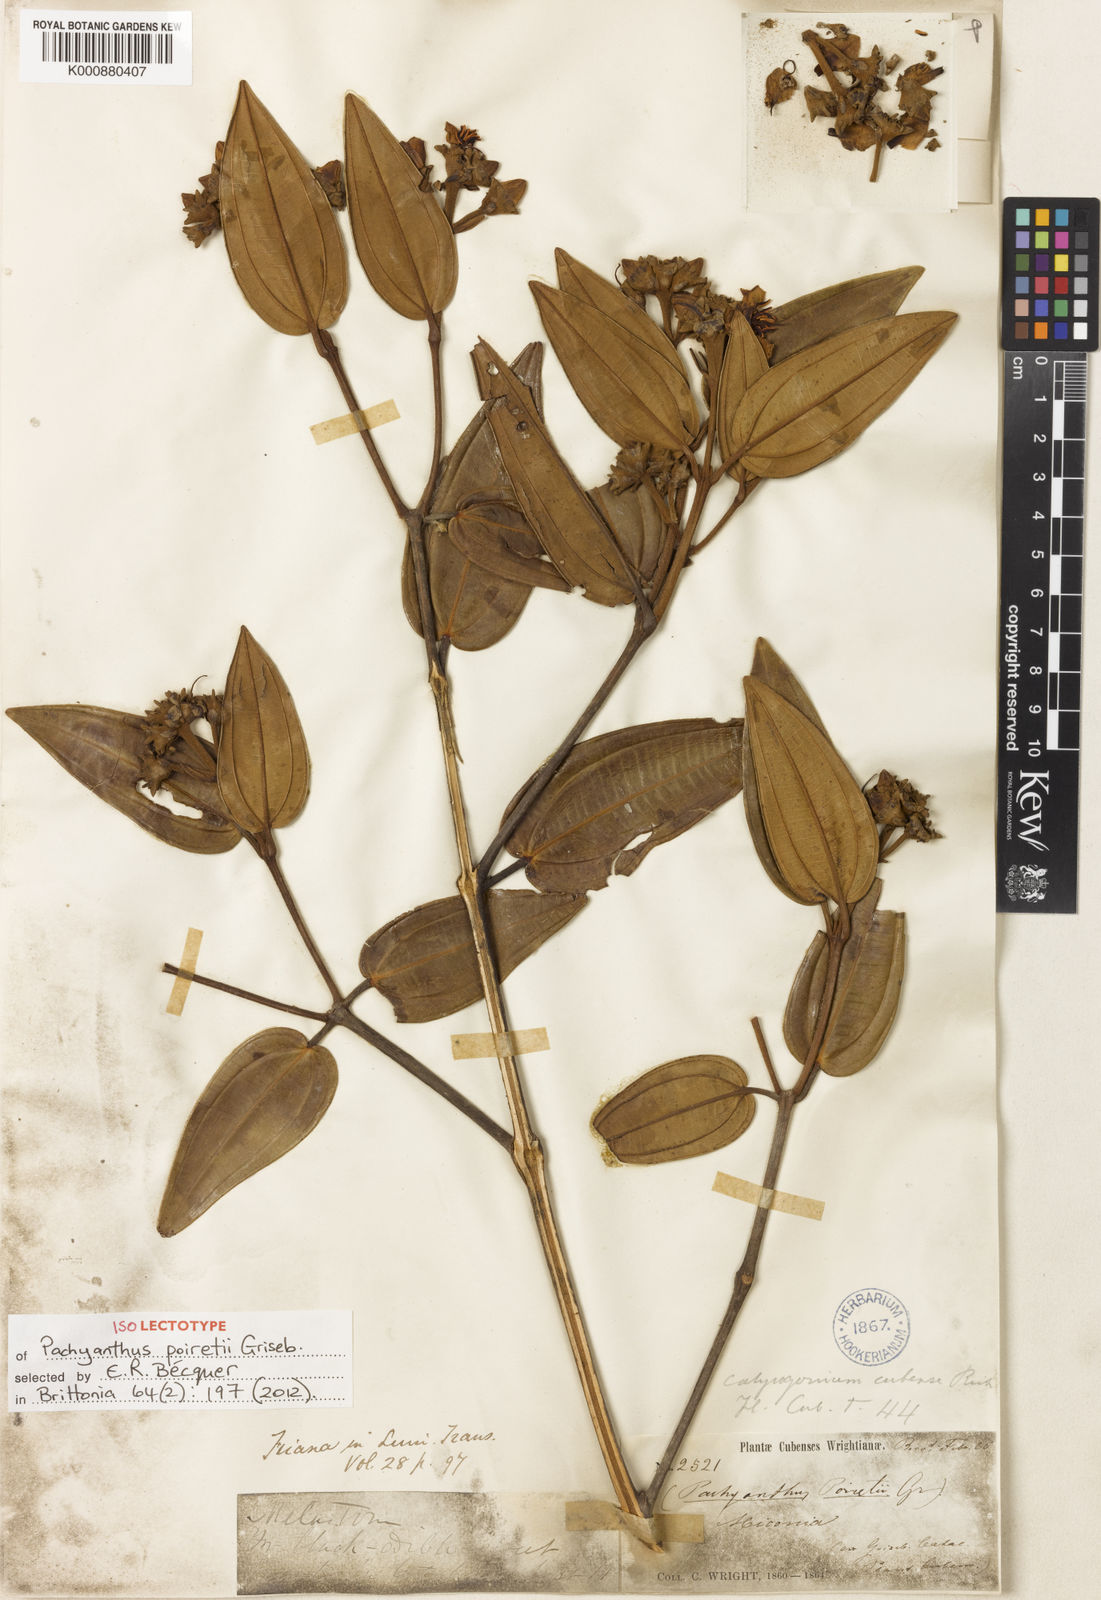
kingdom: Plantae
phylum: Tracheophyta
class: Magnoliopsida
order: Myrtales
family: Melastomataceae
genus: Miconia
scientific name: Miconia poiretii
